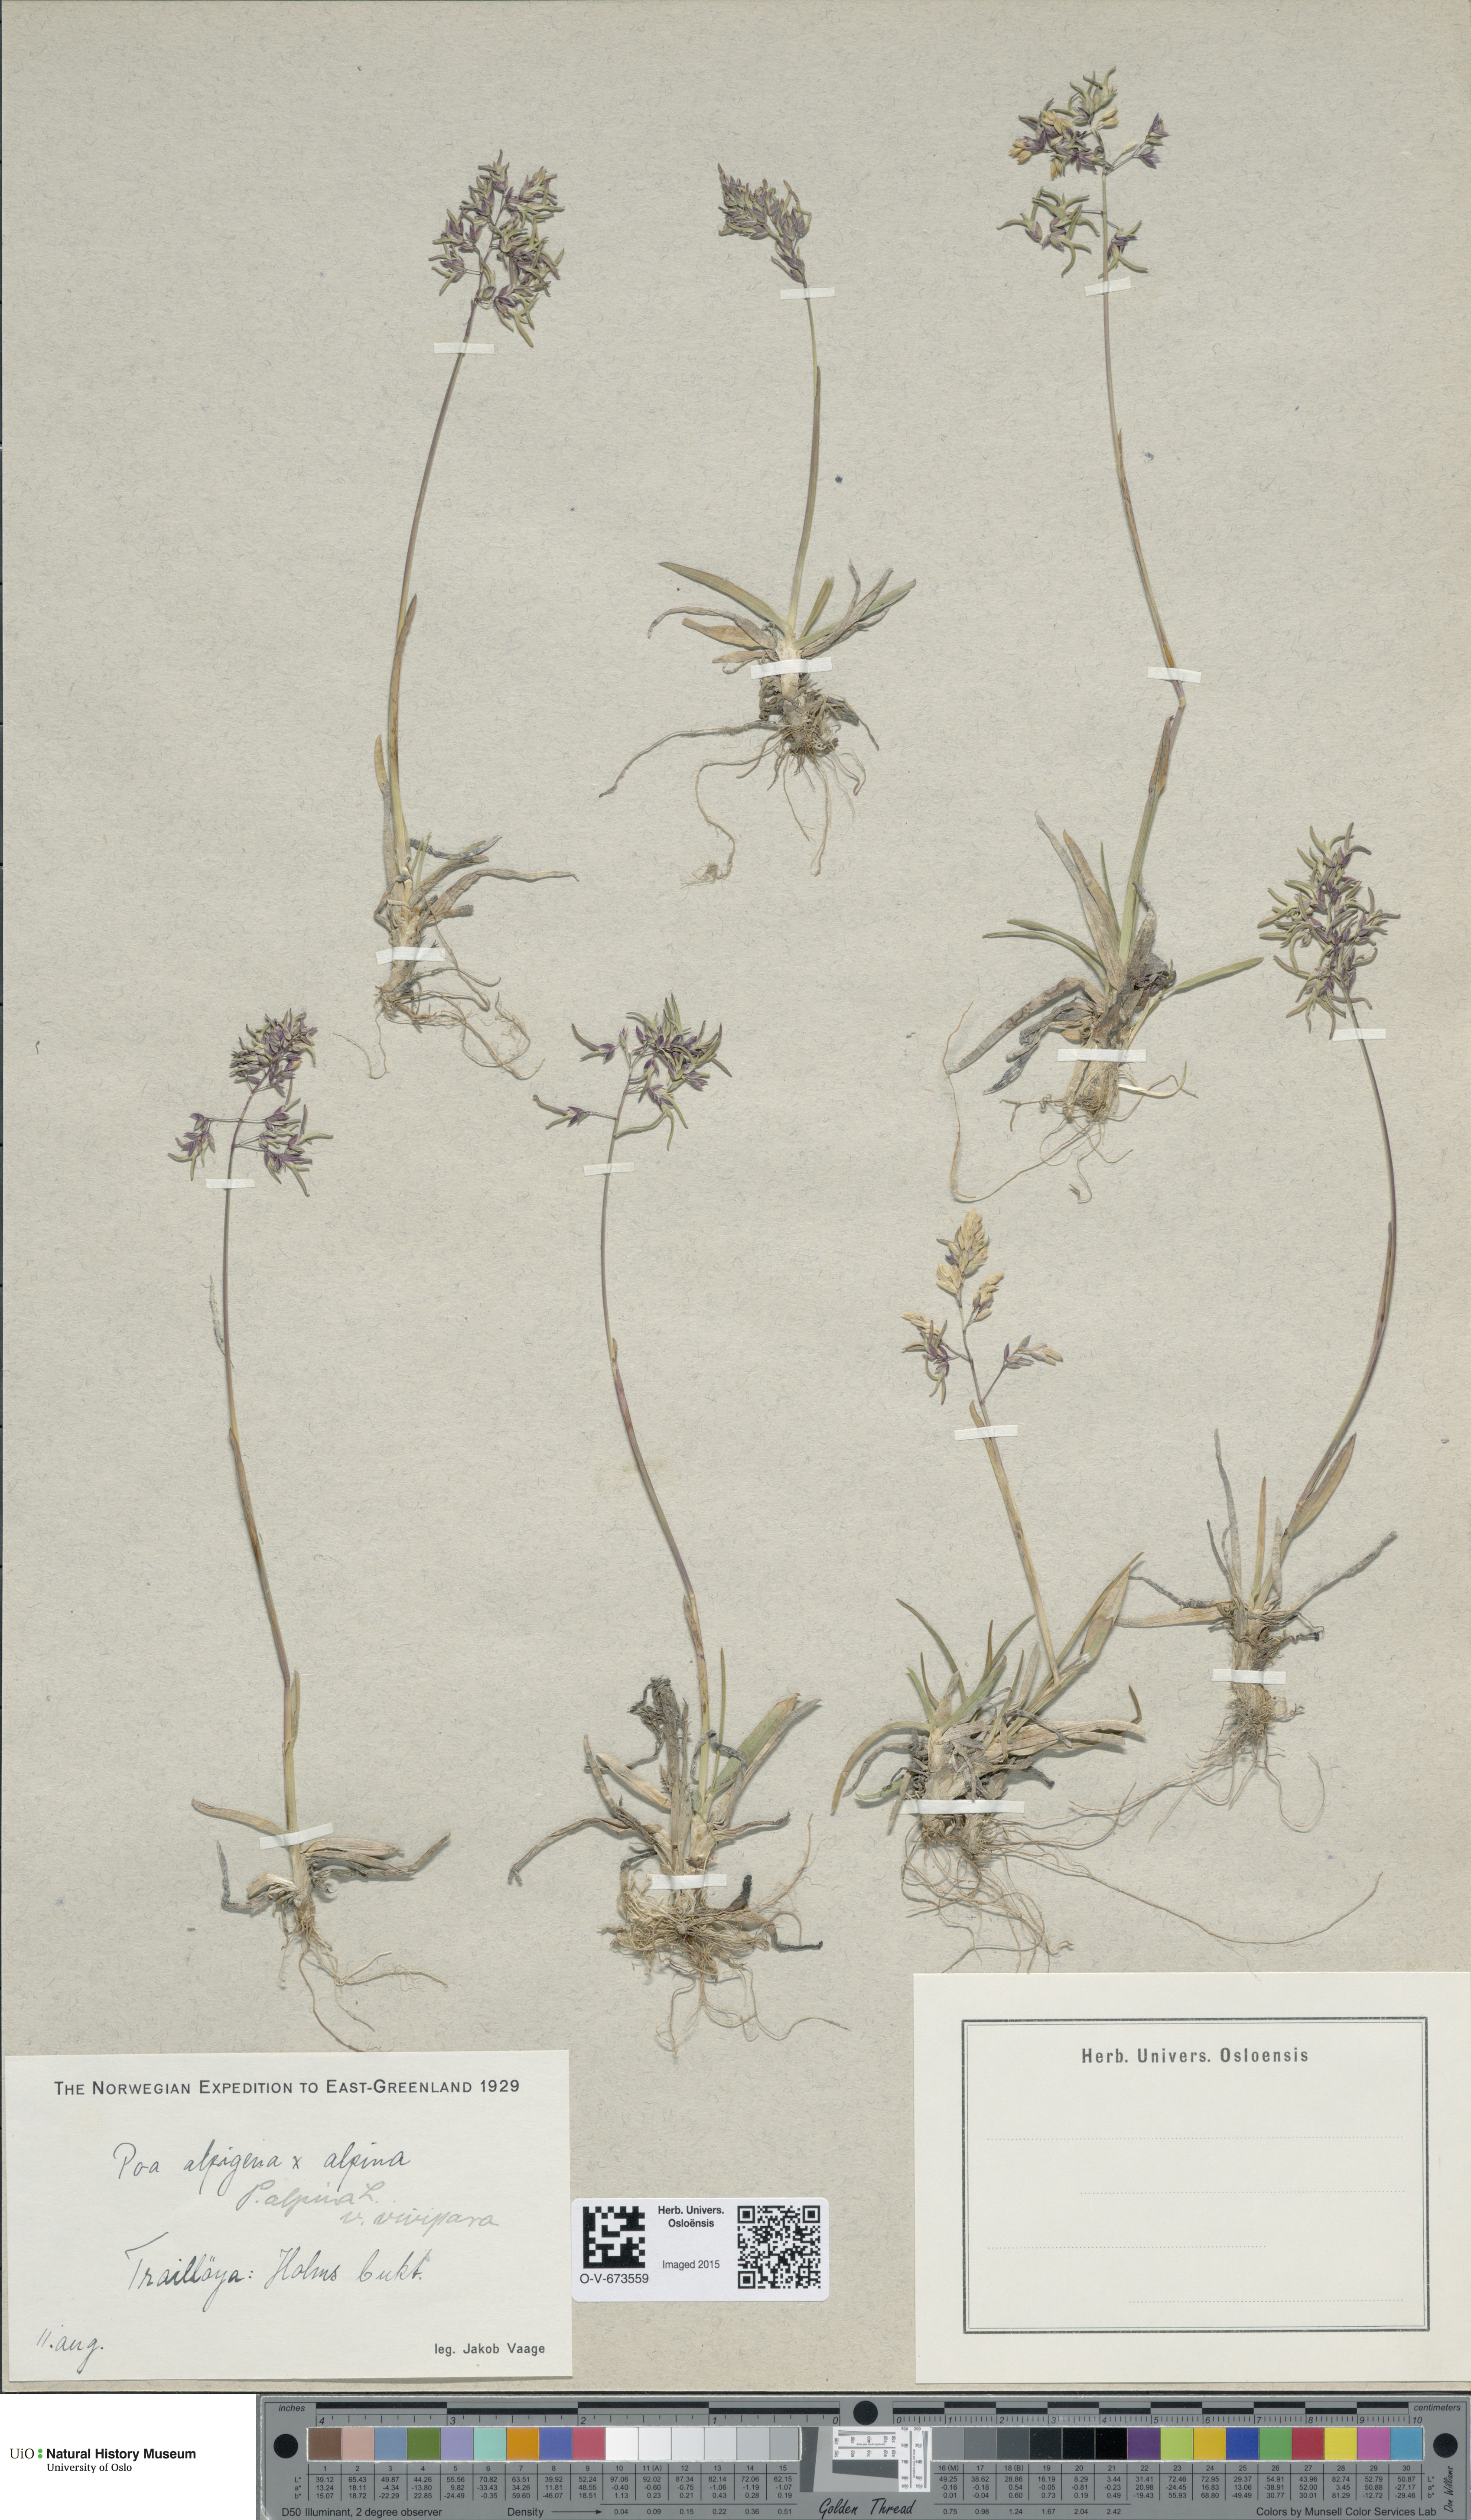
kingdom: Plantae
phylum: Tracheophyta
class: Liliopsida
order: Poales
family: Poaceae
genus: Poa
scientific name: Poa alpina
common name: Alpine bluegrass
